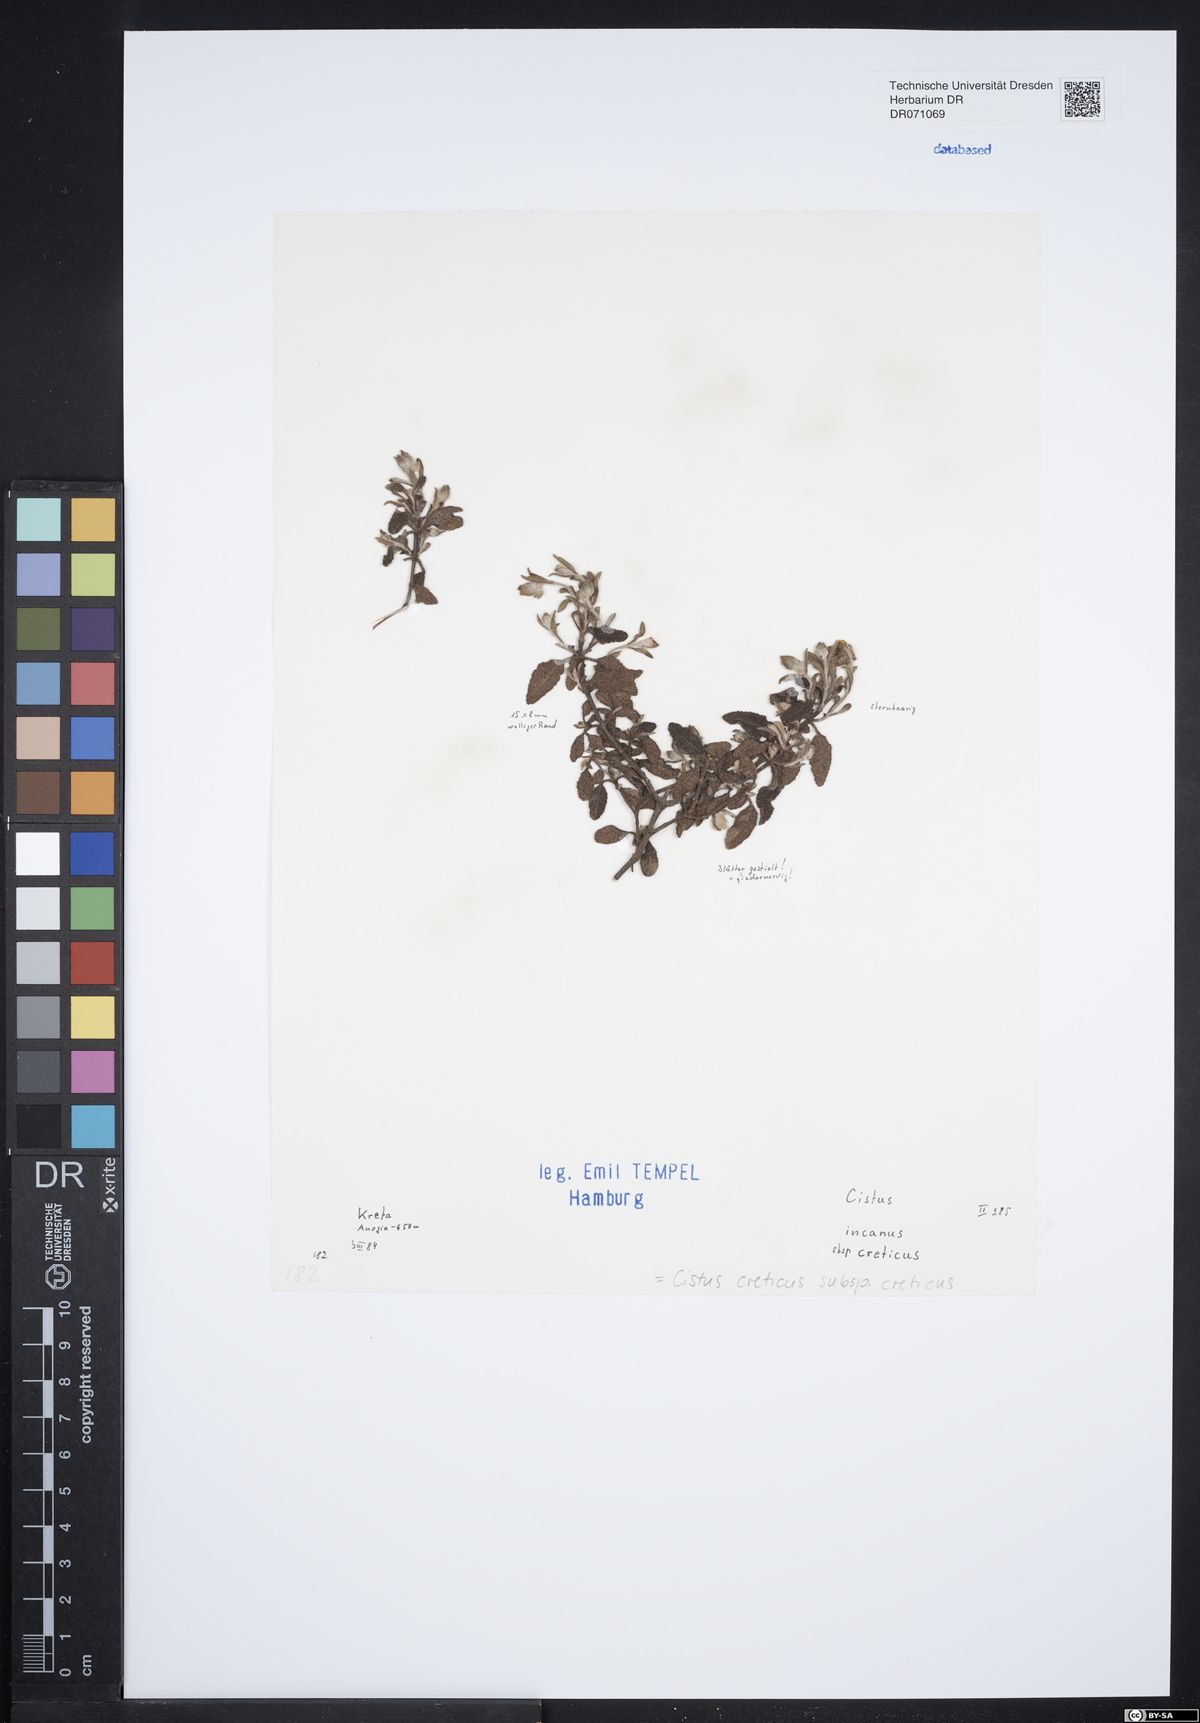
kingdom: Plantae
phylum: Tracheophyta
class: Magnoliopsida
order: Malvales
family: Cistaceae
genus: Cistus
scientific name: Cistus creticus
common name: Cretan rockrose
